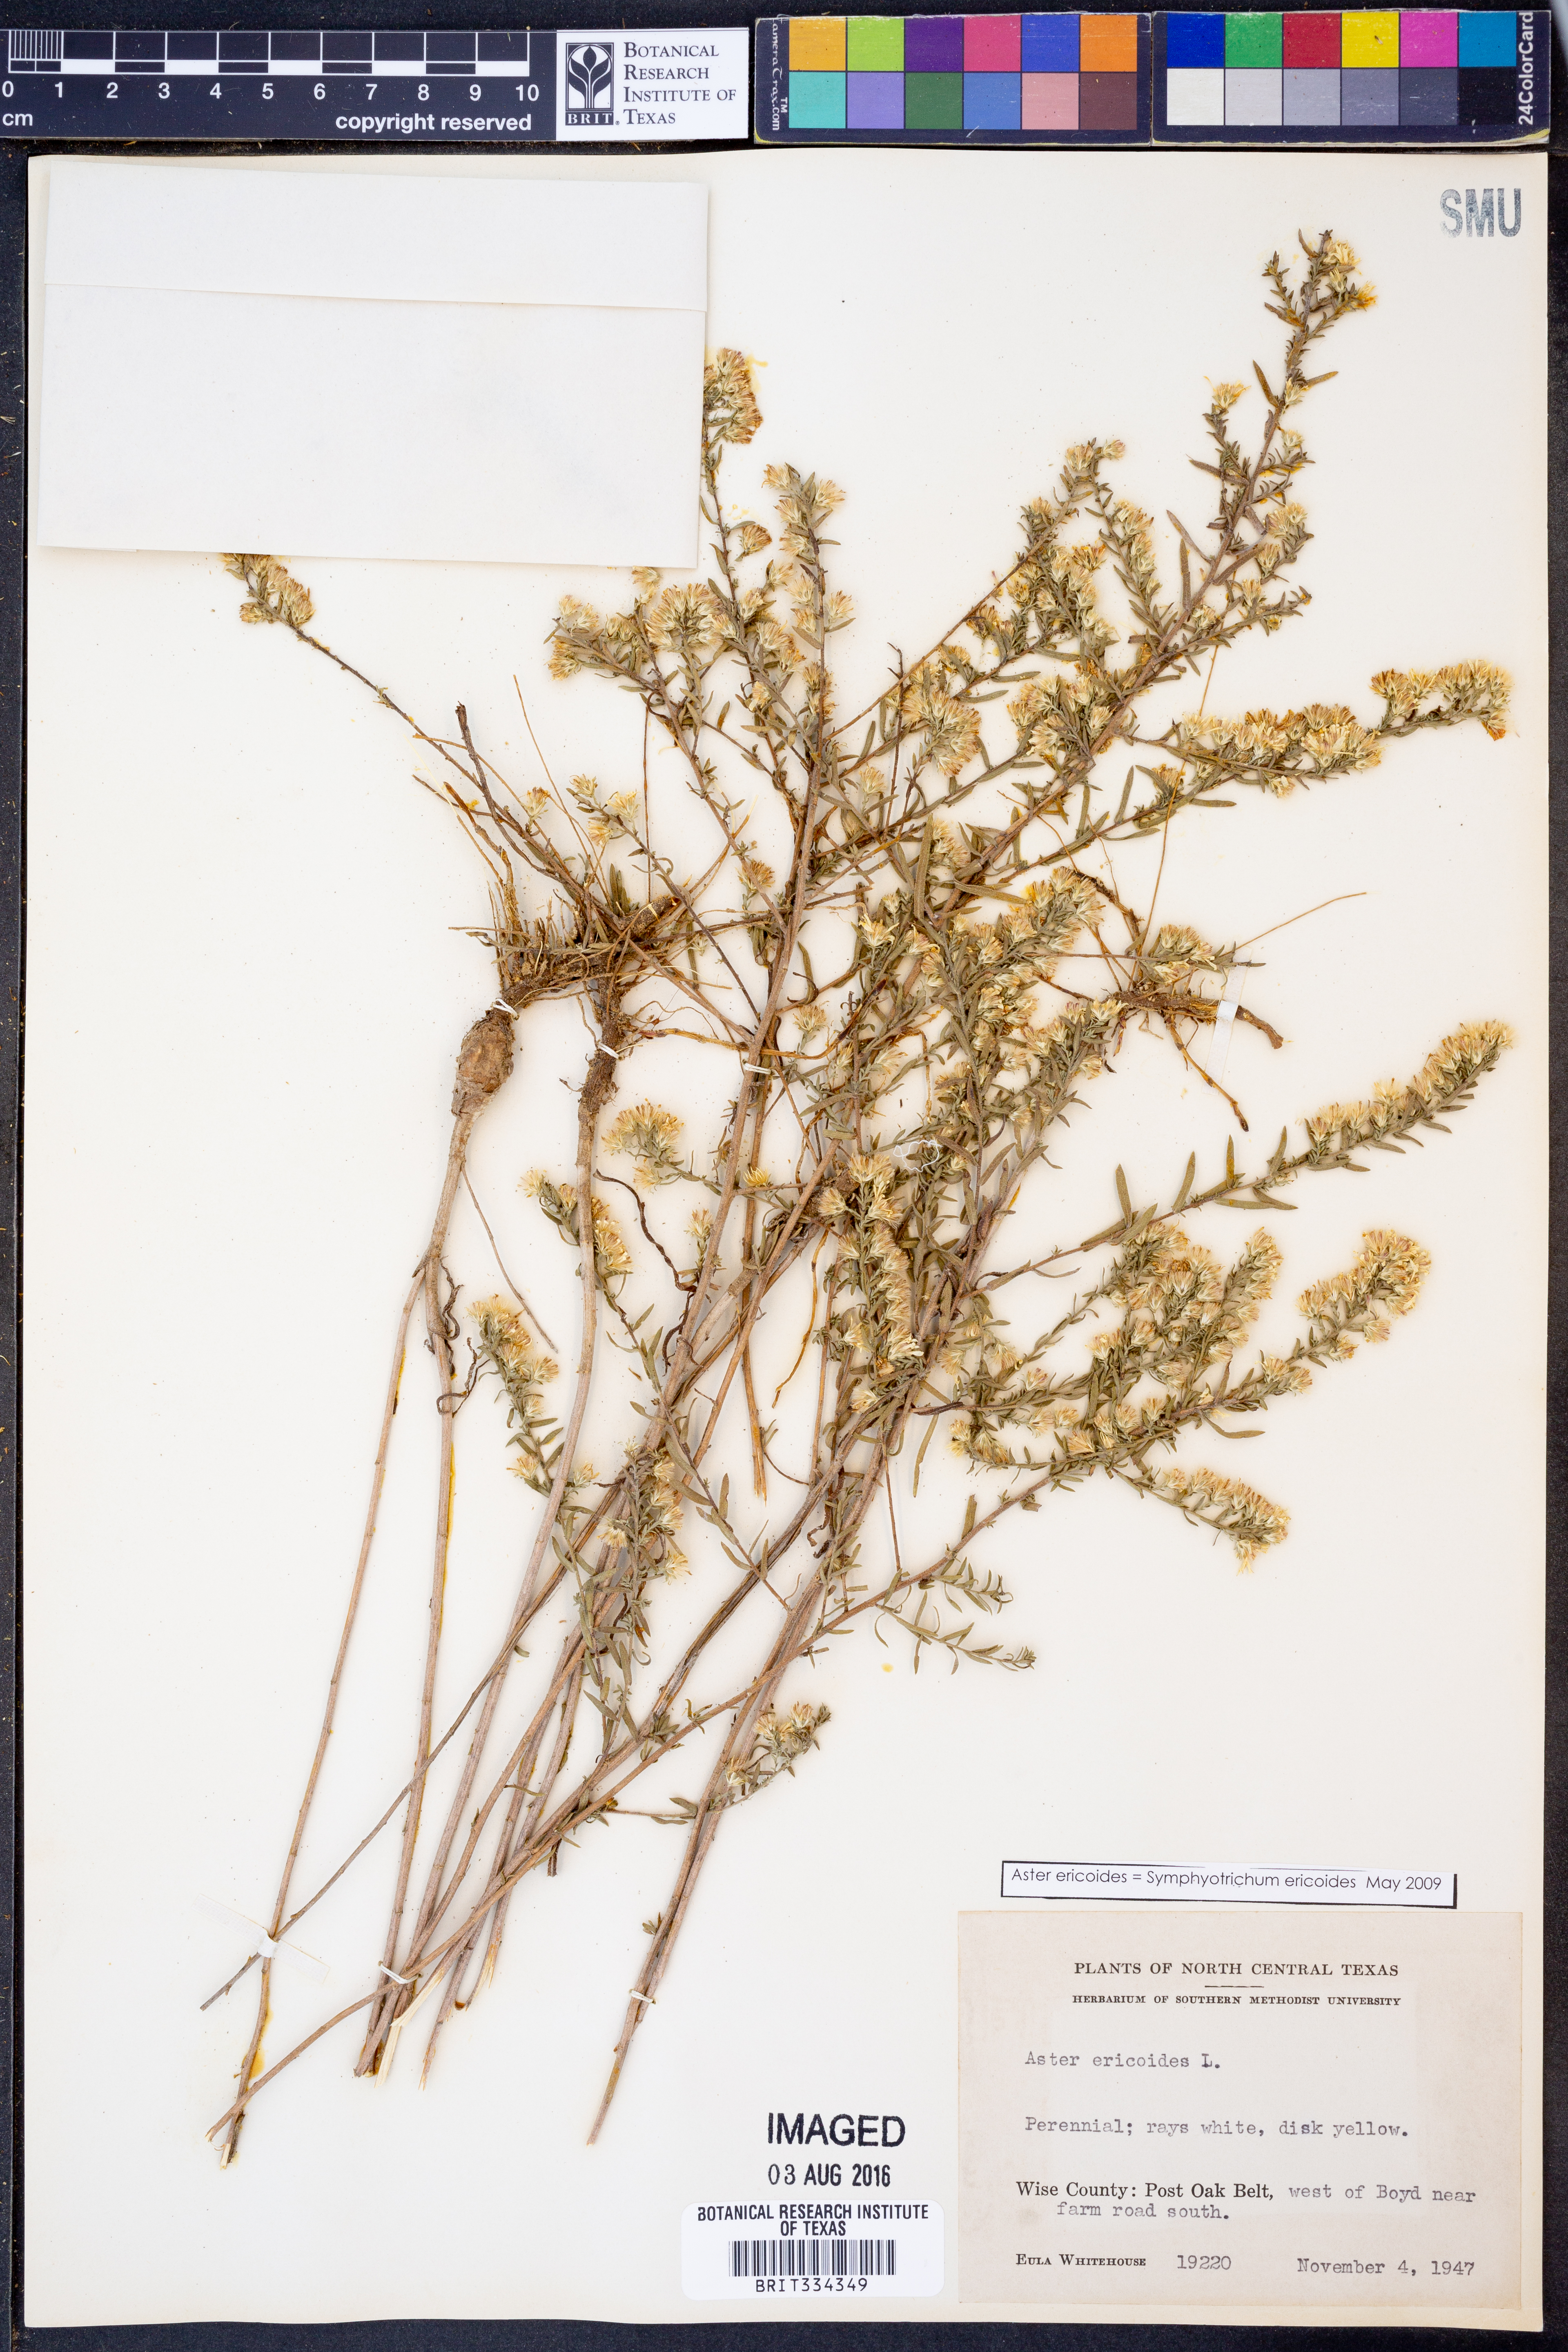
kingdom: Plantae
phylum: Tracheophyta
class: Magnoliopsida
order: Asterales
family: Asteraceae
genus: Symphyotrichum
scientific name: Symphyotrichum ericoides
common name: Heath aster
